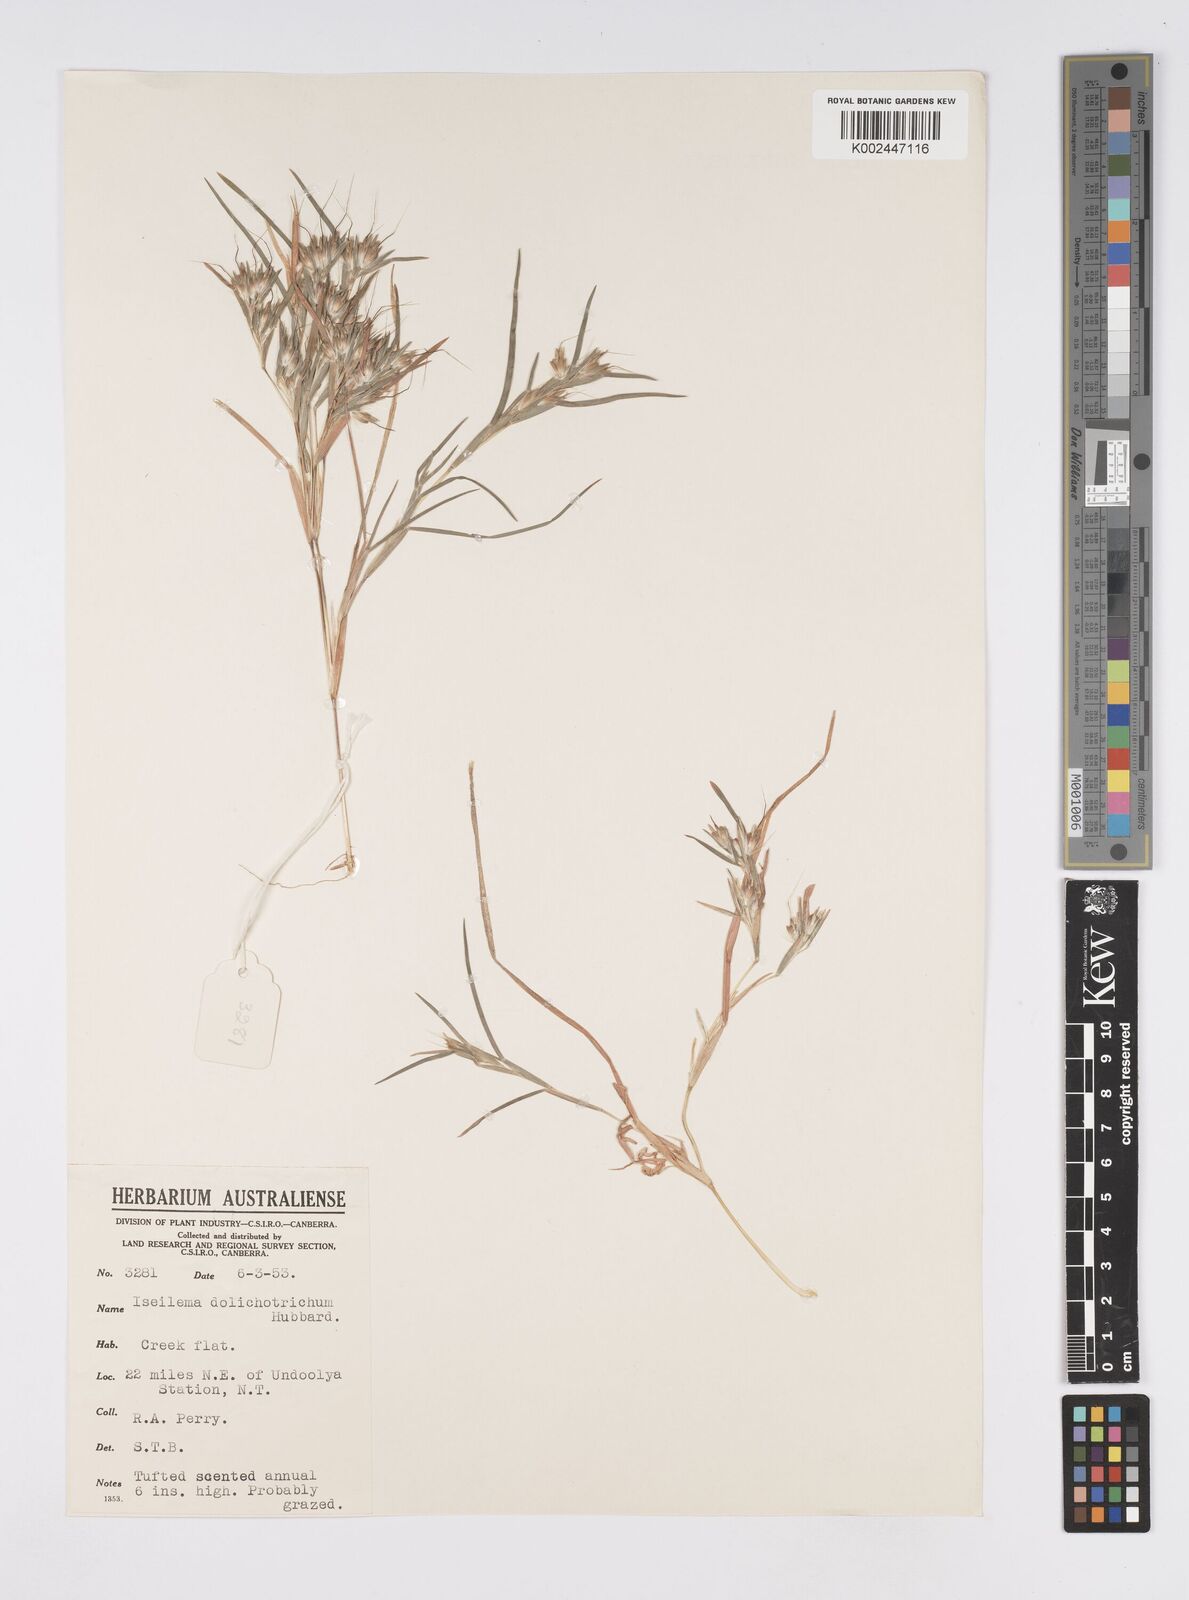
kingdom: Plantae
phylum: Tracheophyta
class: Liliopsida
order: Poales
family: Poaceae
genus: Iseilema
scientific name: Iseilema dolichotrichum
